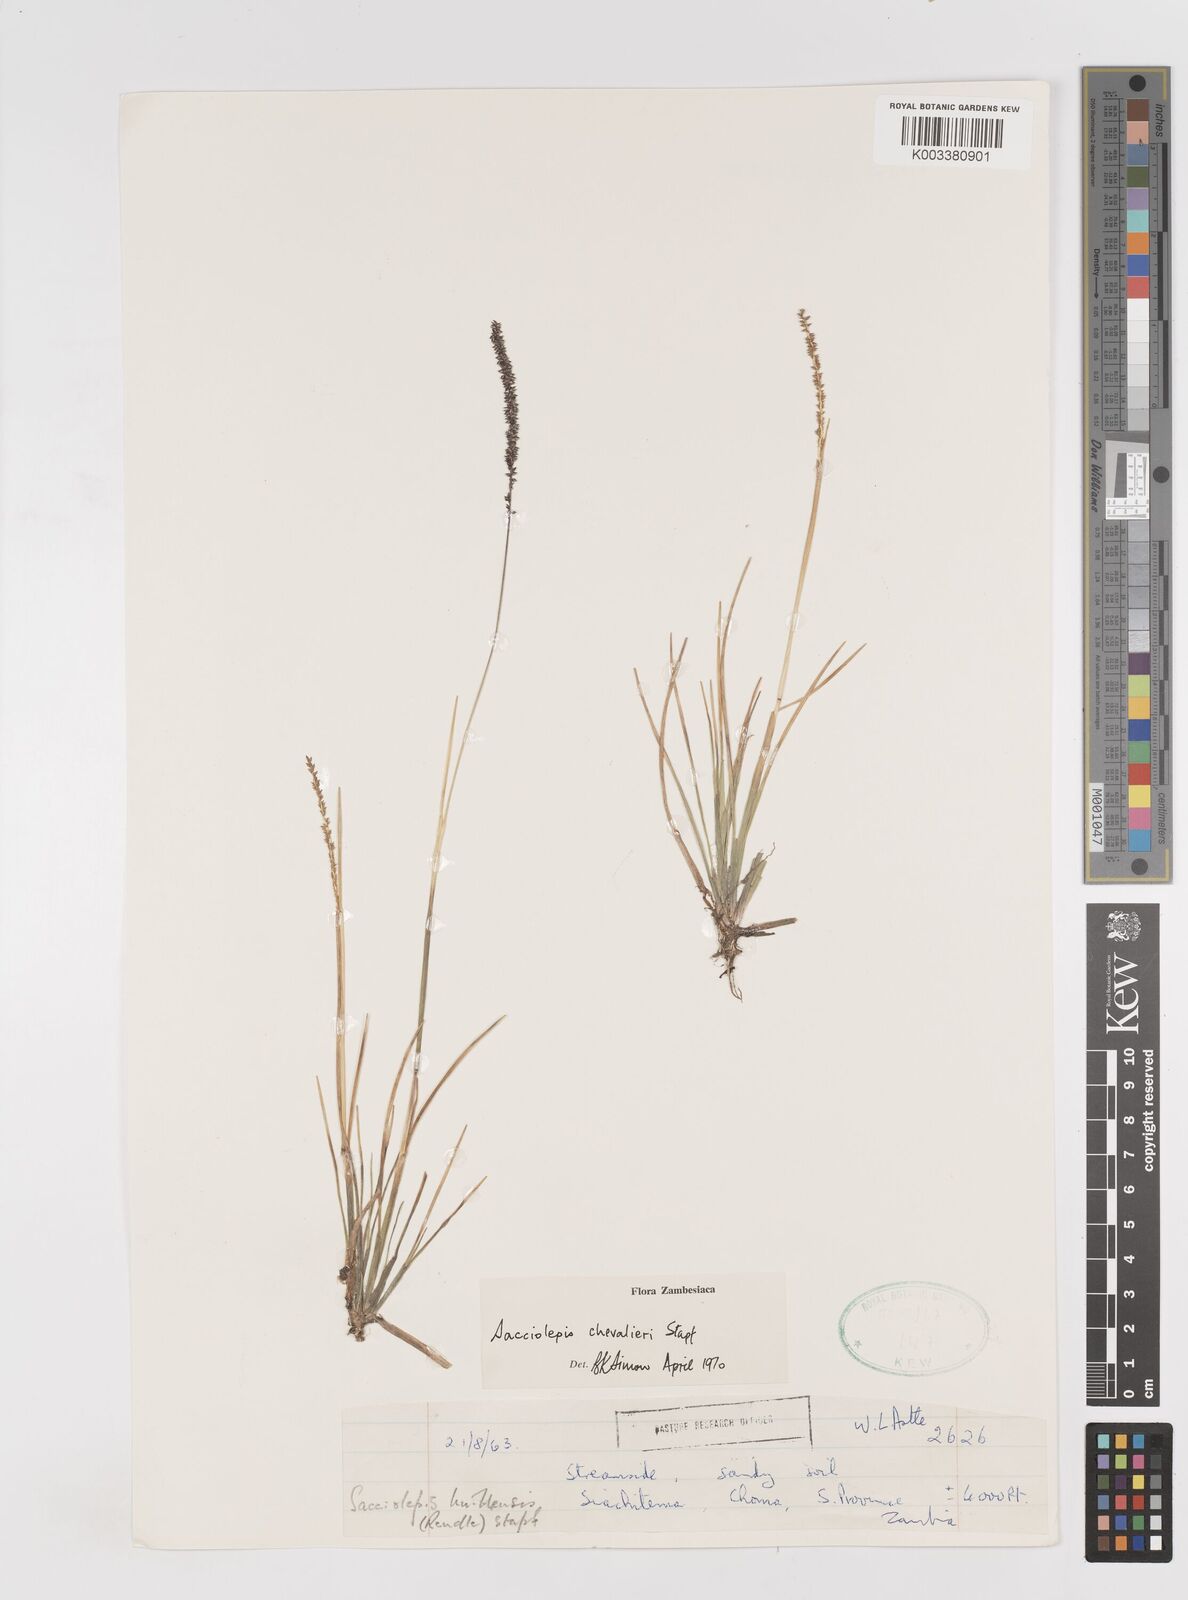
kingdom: Plantae
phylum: Tracheophyta
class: Liliopsida
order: Poales
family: Poaceae
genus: Sacciolepis
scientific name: Sacciolepis chevalieri
